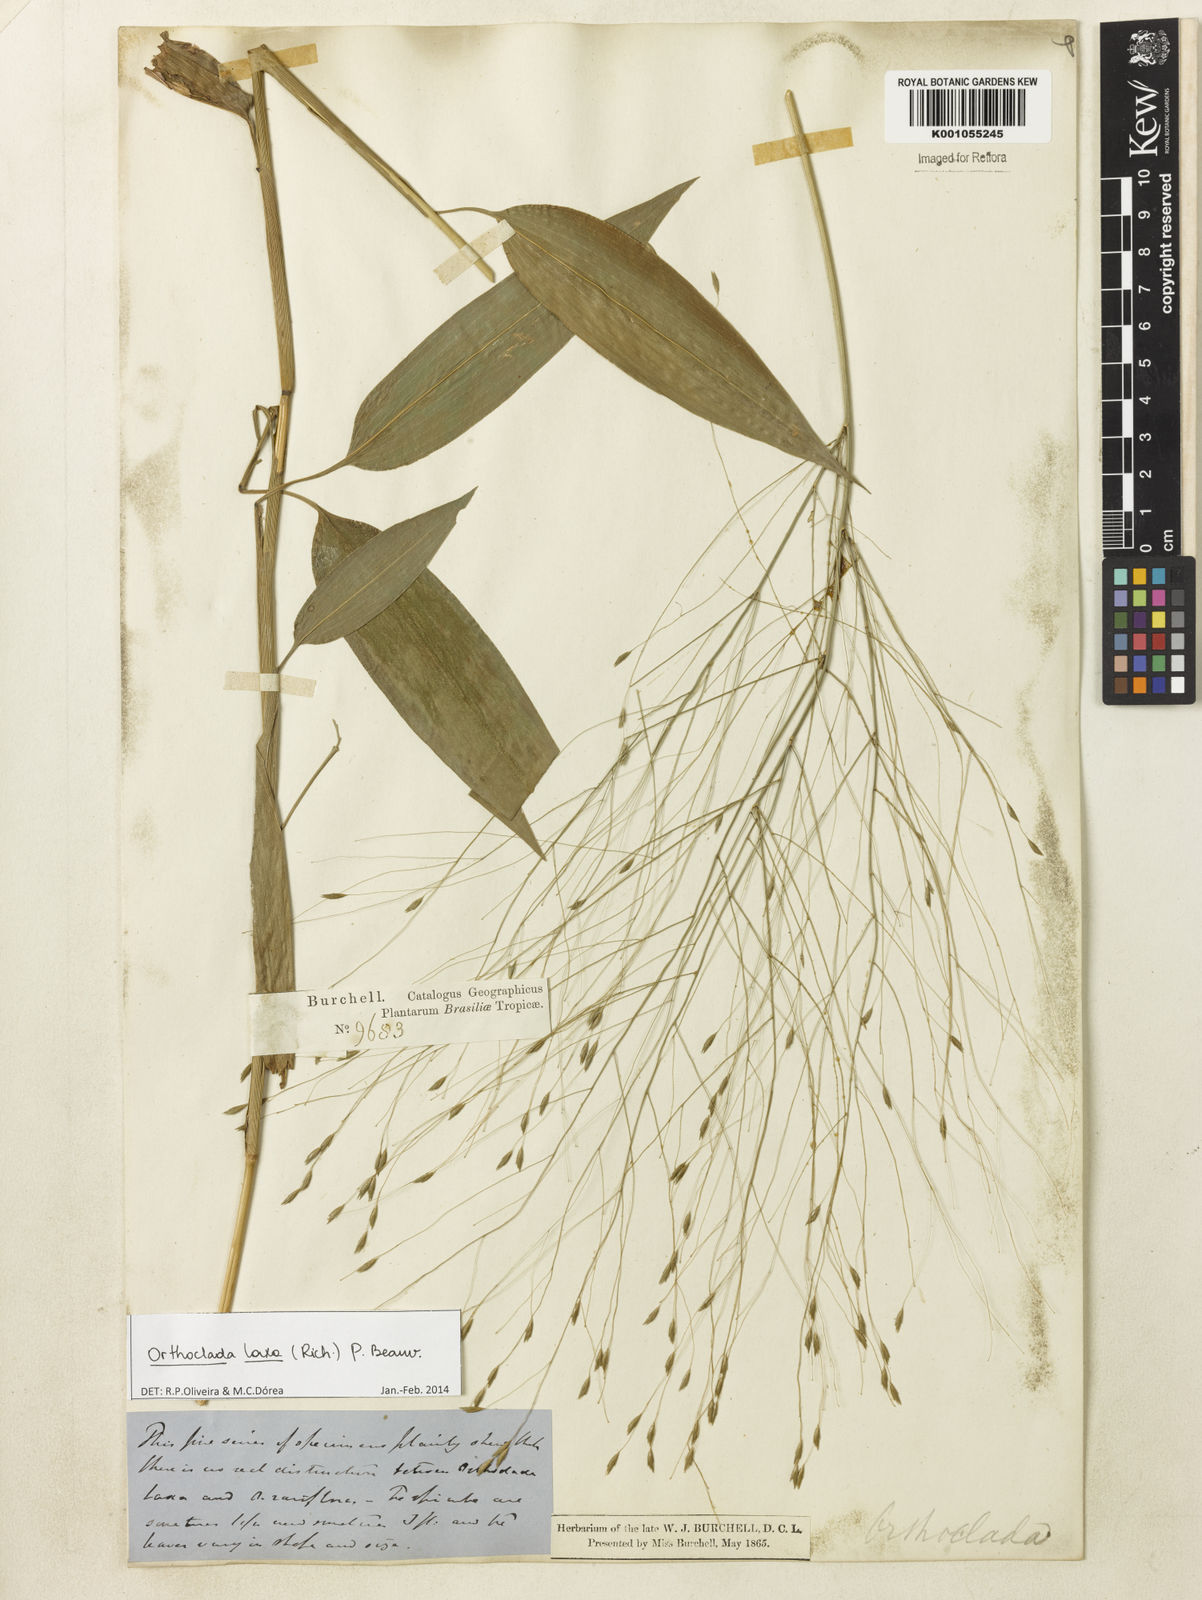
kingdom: Plantae
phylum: Tracheophyta
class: Liliopsida
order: Poales
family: Poaceae
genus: Orthoclada
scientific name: Orthoclada laxa
